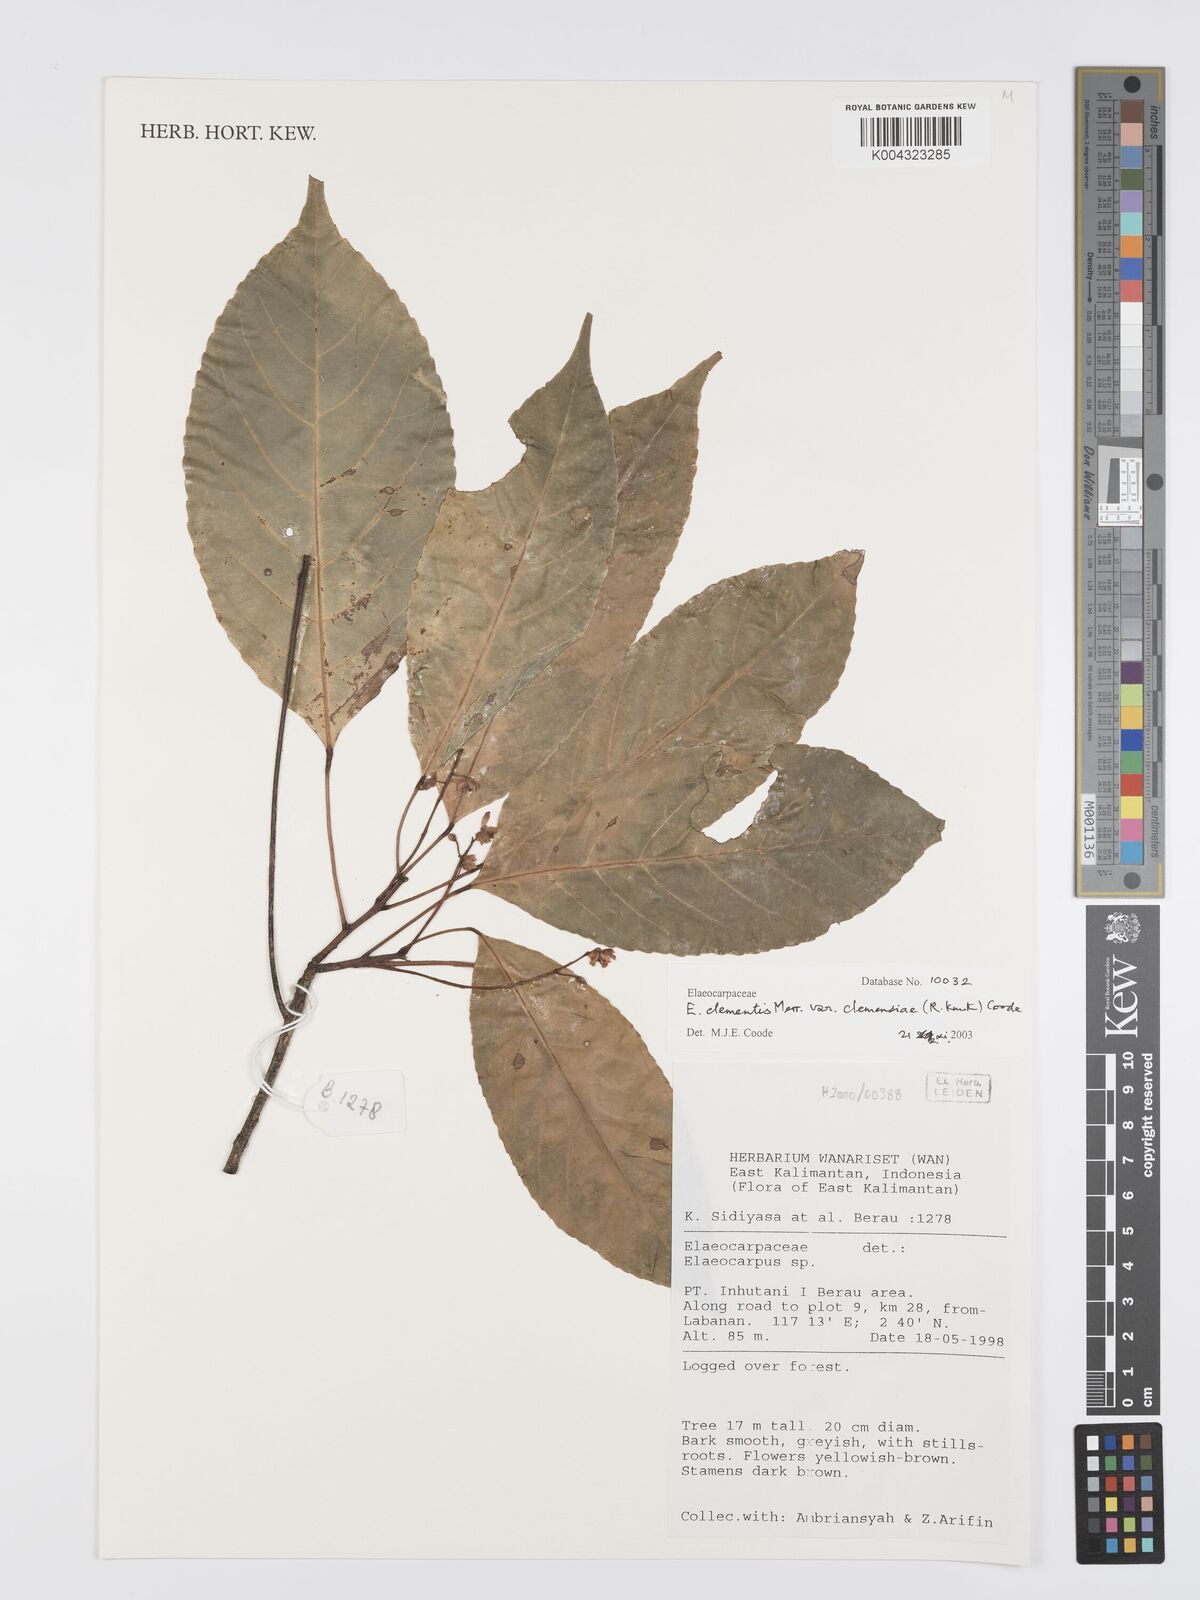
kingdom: Plantae
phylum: Tracheophyta
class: Magnoliopsida
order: Oxalidales
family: Elaeocarpaceae
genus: Elaeocarpus
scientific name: Elaeocarpus clementis
